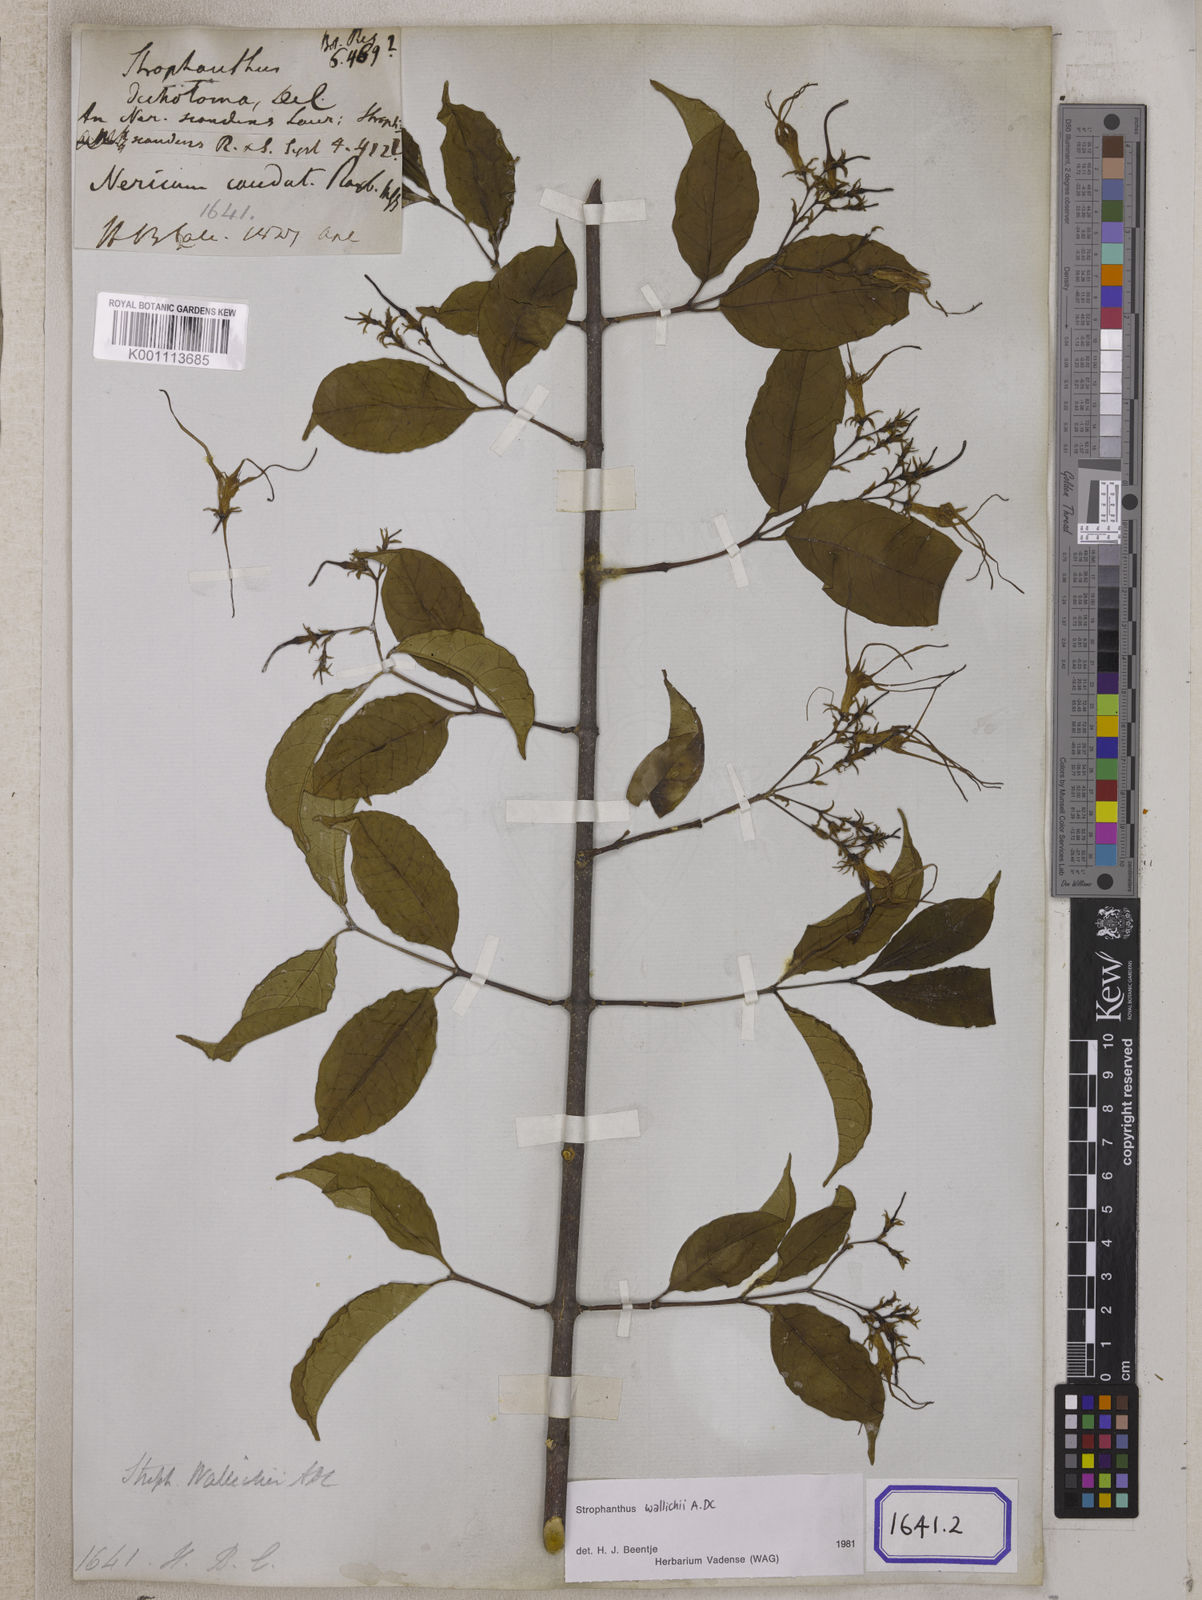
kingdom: Plantae
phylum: Tracheophyta
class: Magnoliopsida
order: Gentianales
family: Apocynaceae
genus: Strophanthus
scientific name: Strophanthus caudatus
